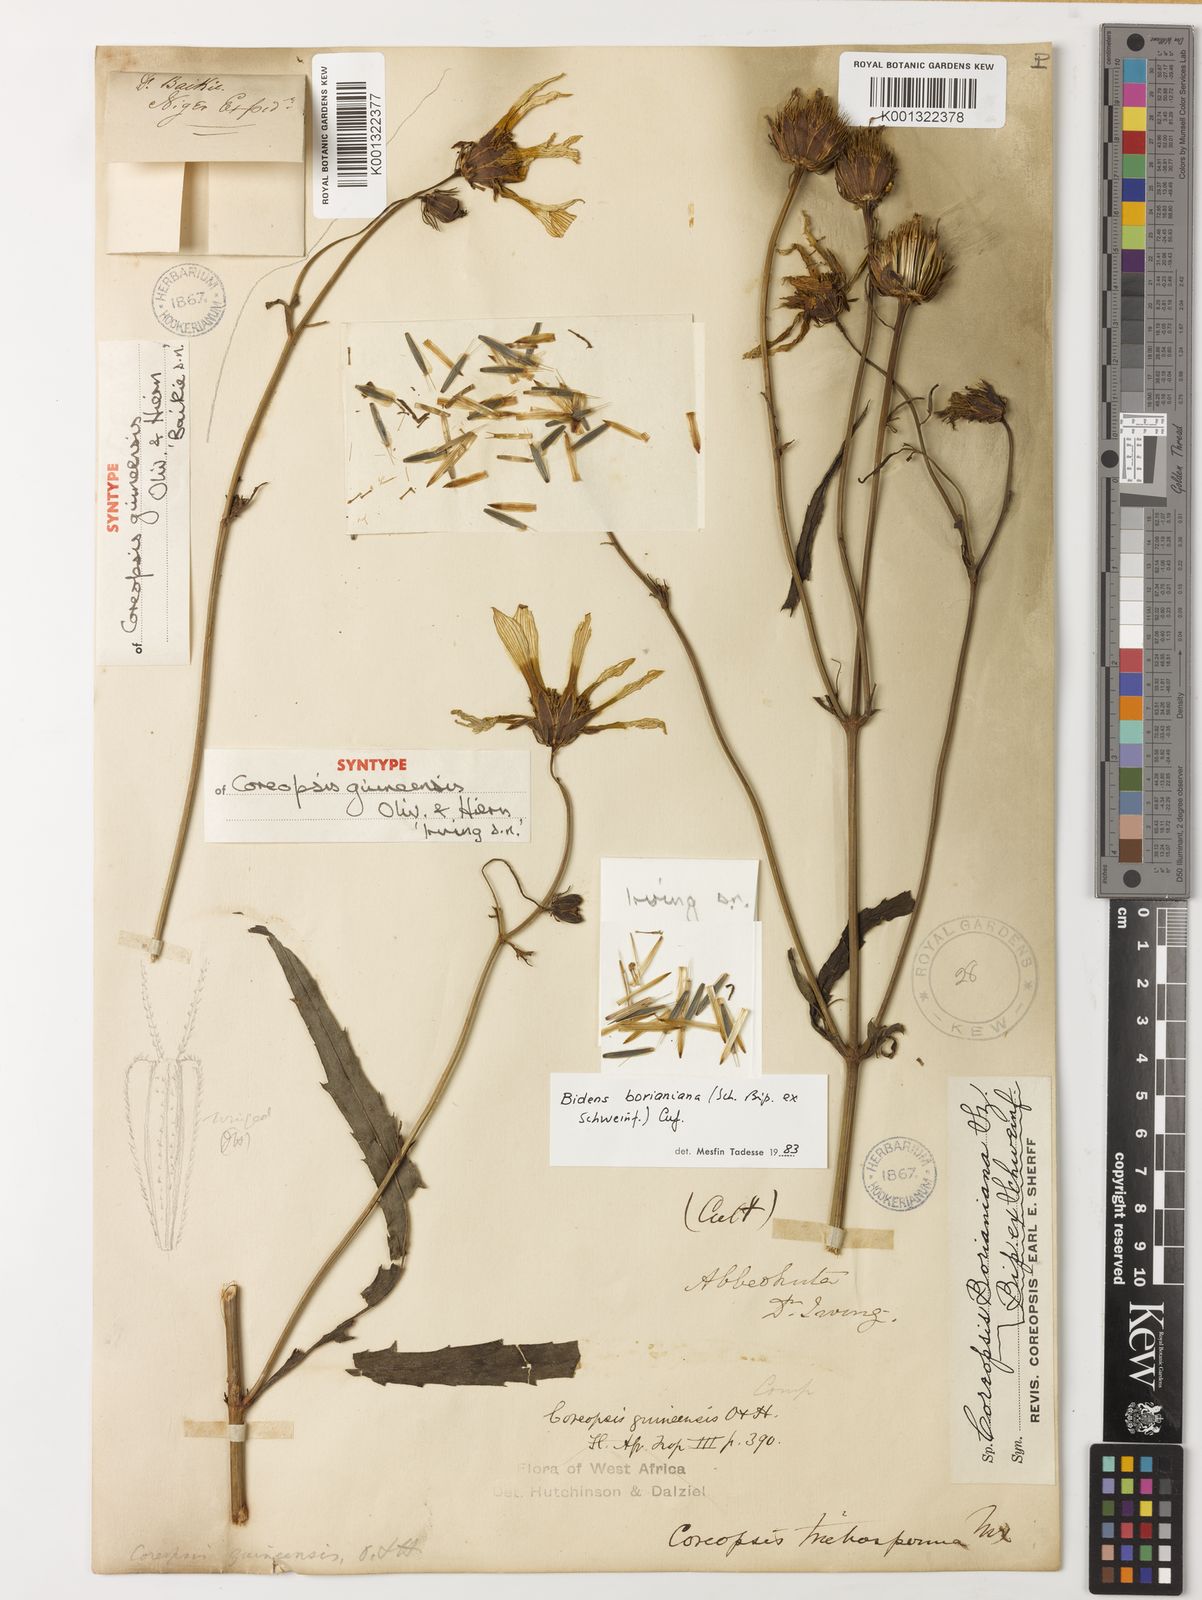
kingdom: Plantae
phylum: Tracheophyta
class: Magnoliopsida
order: Asterales
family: Asteraceae
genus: Bidens
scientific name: Bidens borianiana
